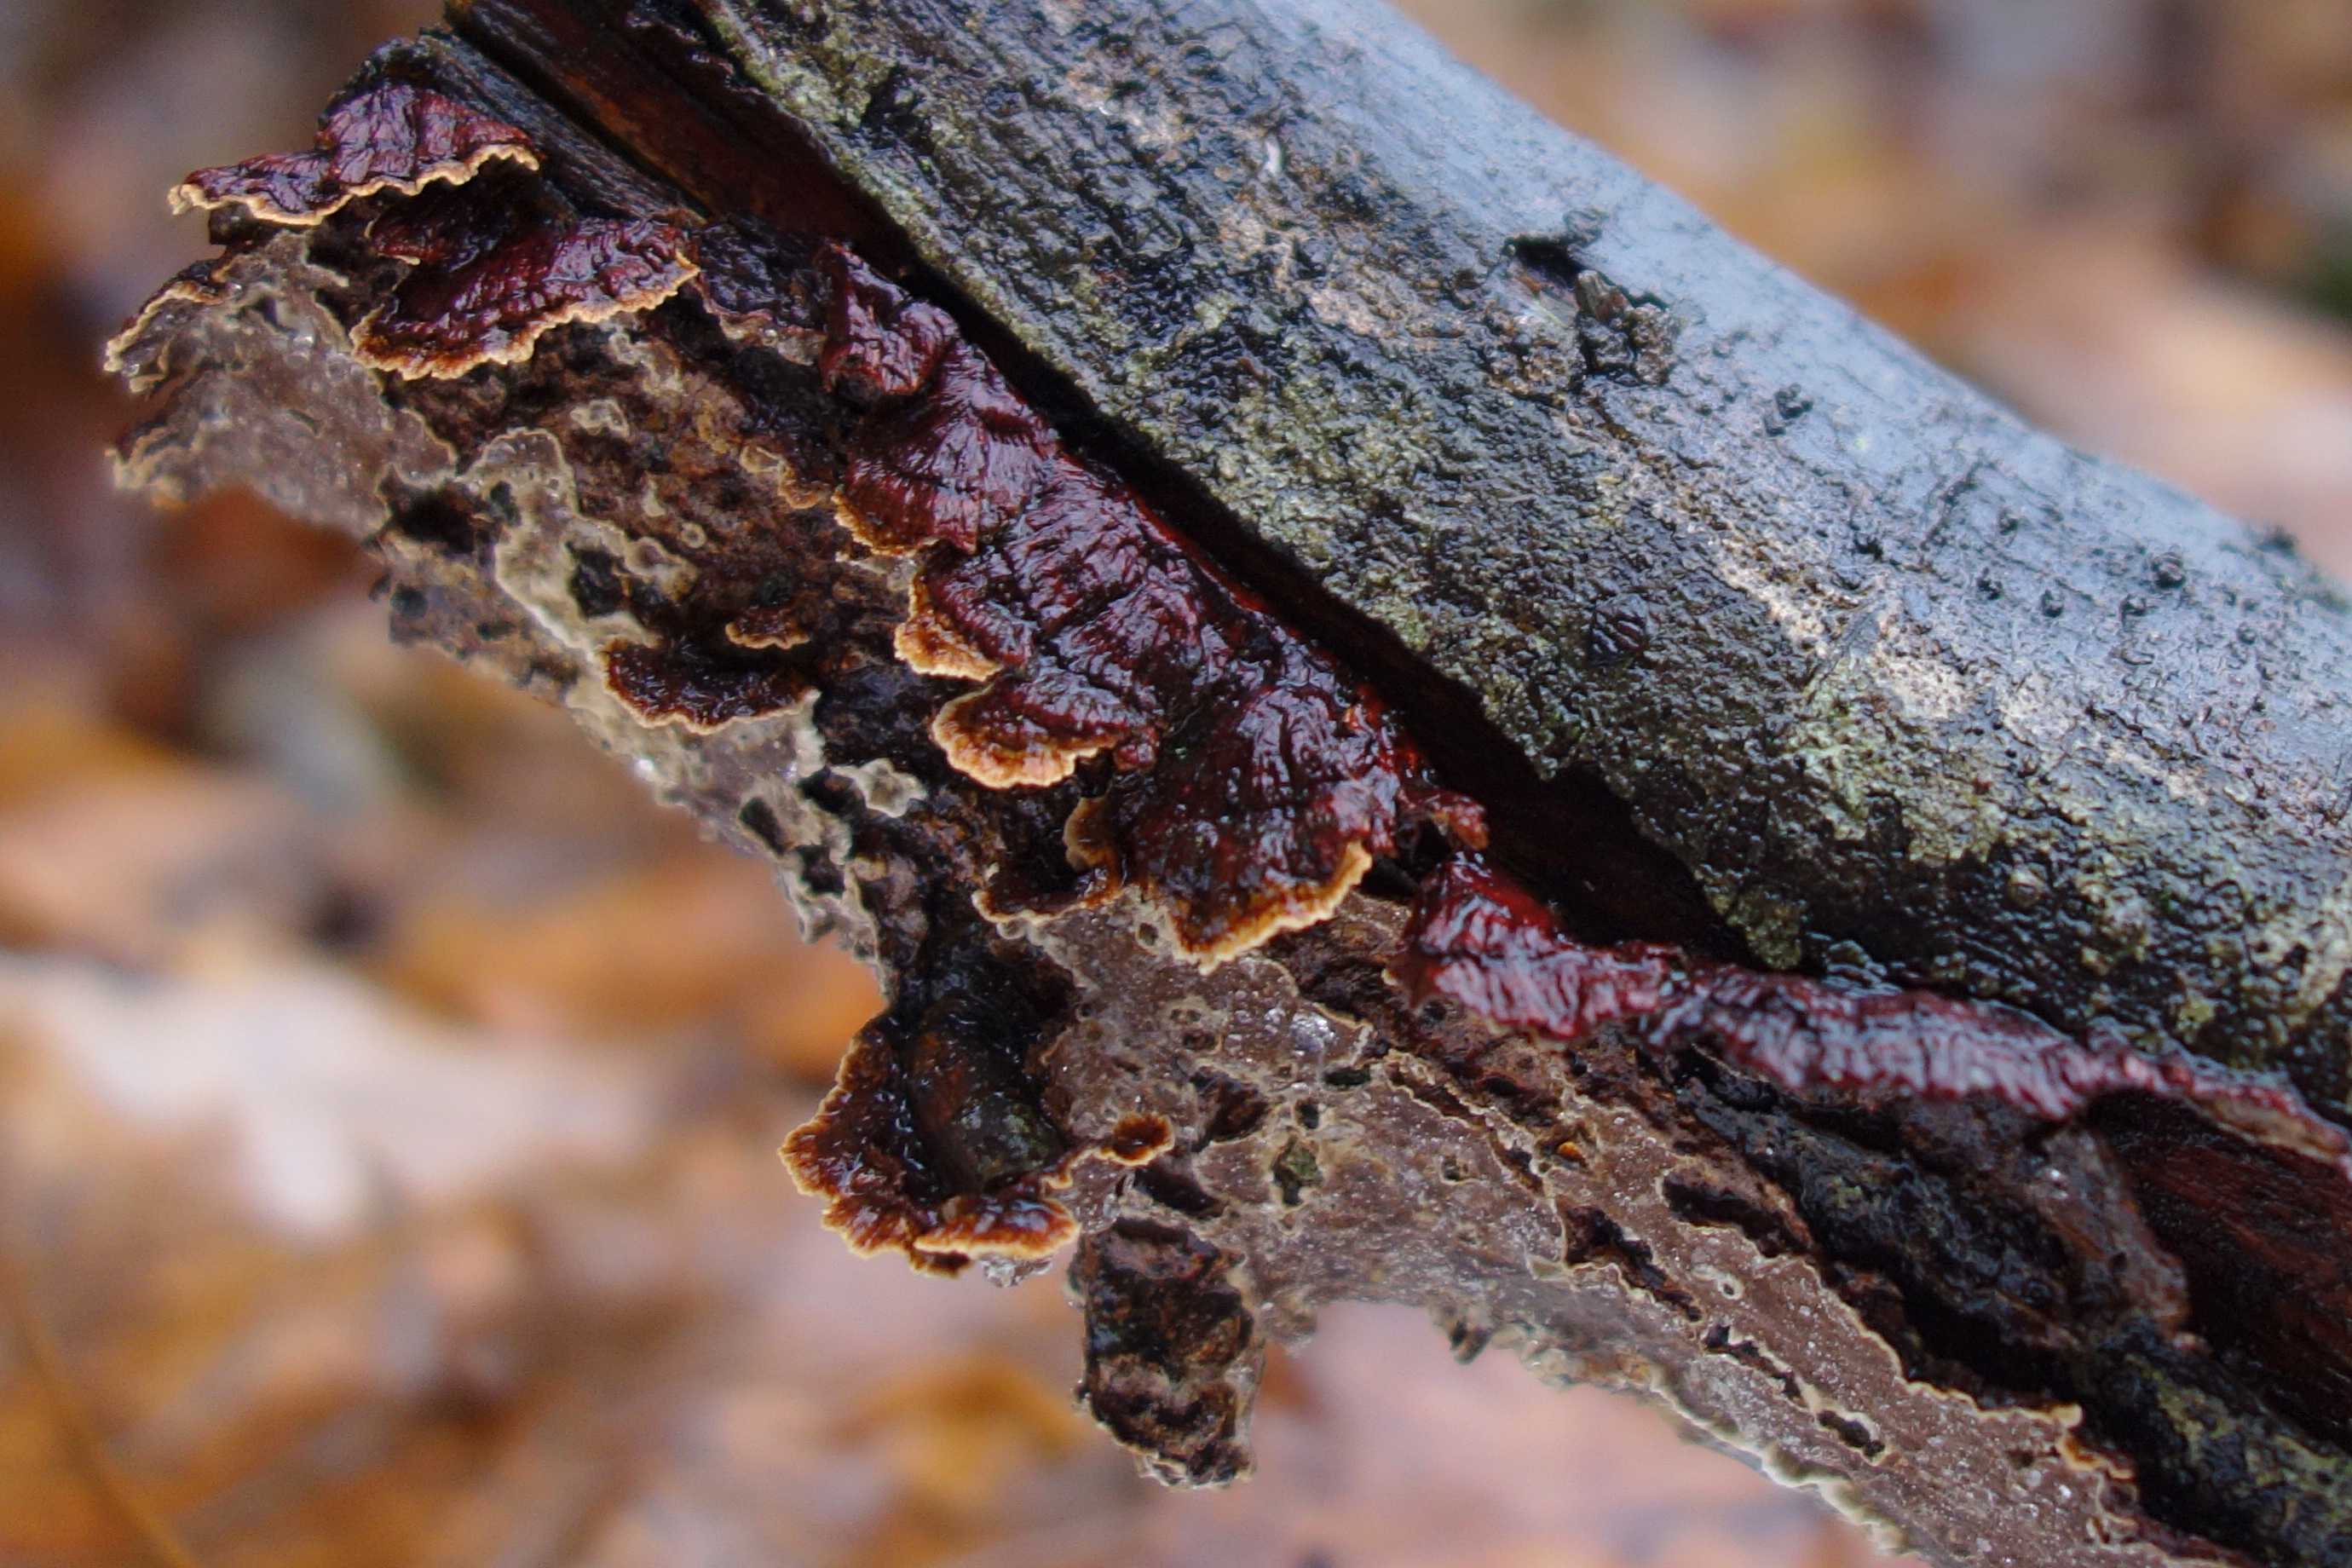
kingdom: Fungi
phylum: Basidiomycota
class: Agaricomycetes
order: Hymenochaetales
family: Hymenochaetaceae
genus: Hydnoporia
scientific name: Hydnoporia tabacina
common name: Willow glue
